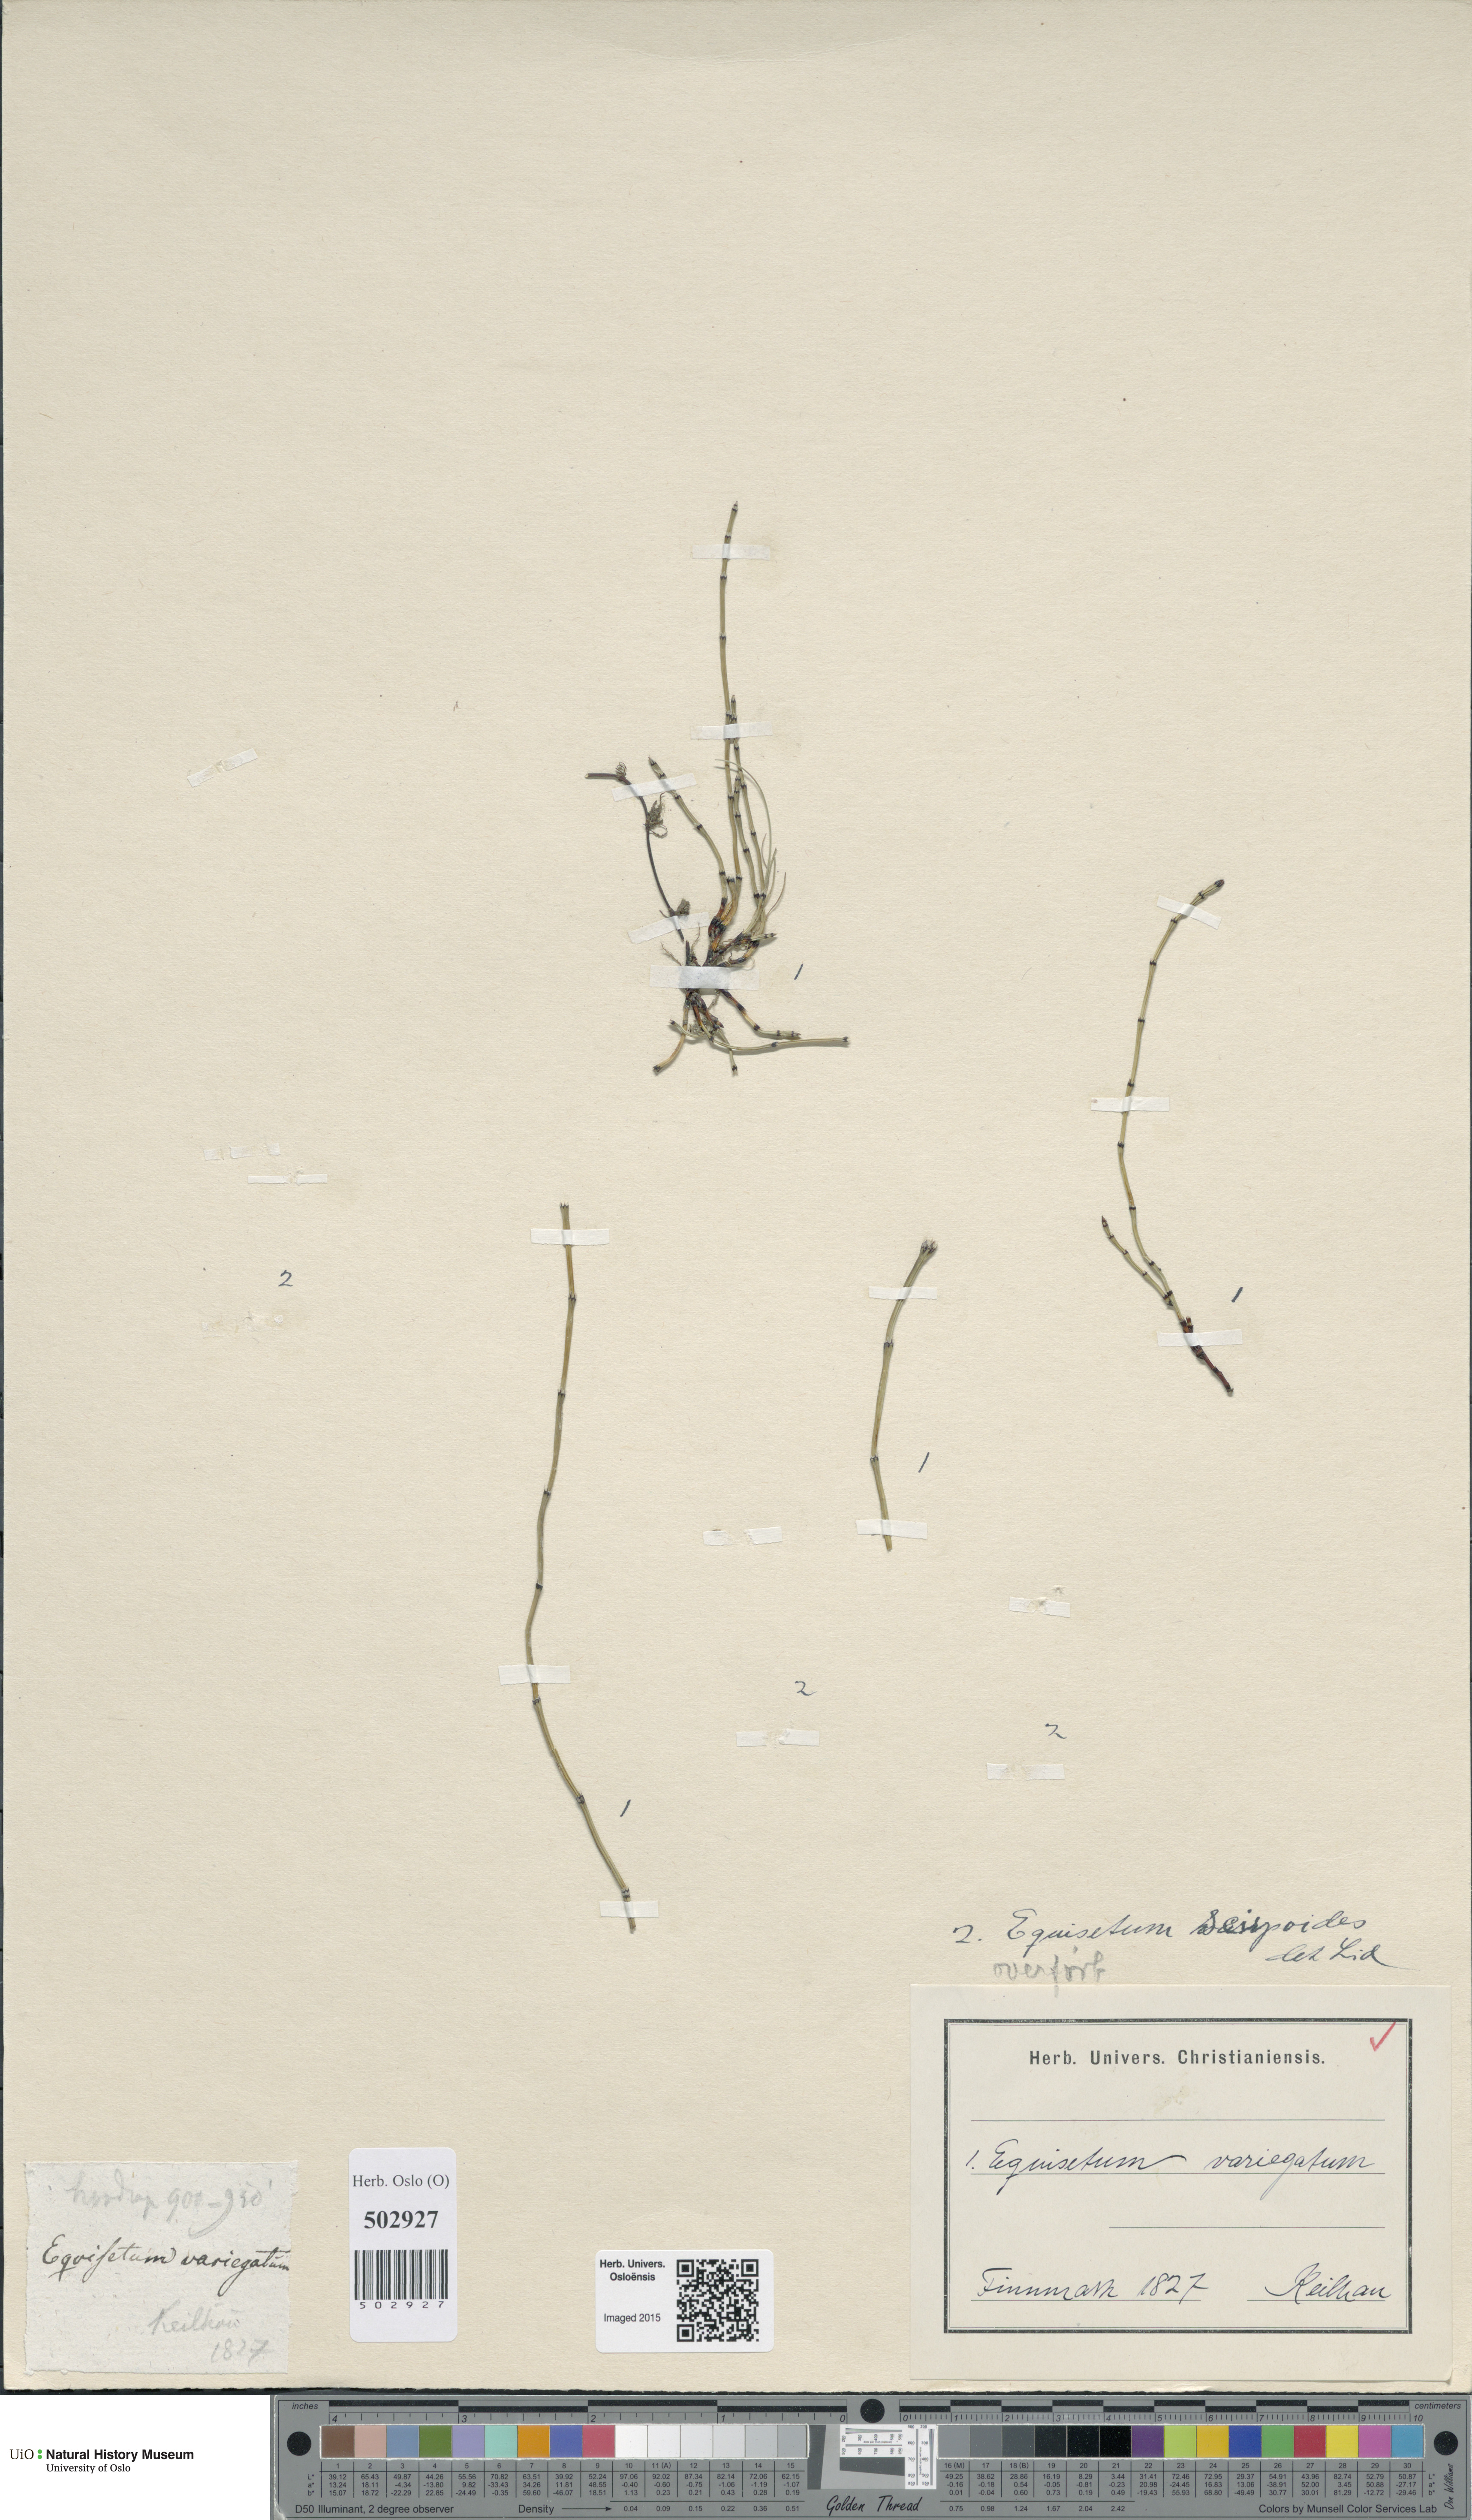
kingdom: Plantae
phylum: Tracheophyta
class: Polypodiopsida
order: Equisetales
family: Equisetaceae
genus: Equisetum
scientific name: Equisetum variegatum
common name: Variegated horsetail
